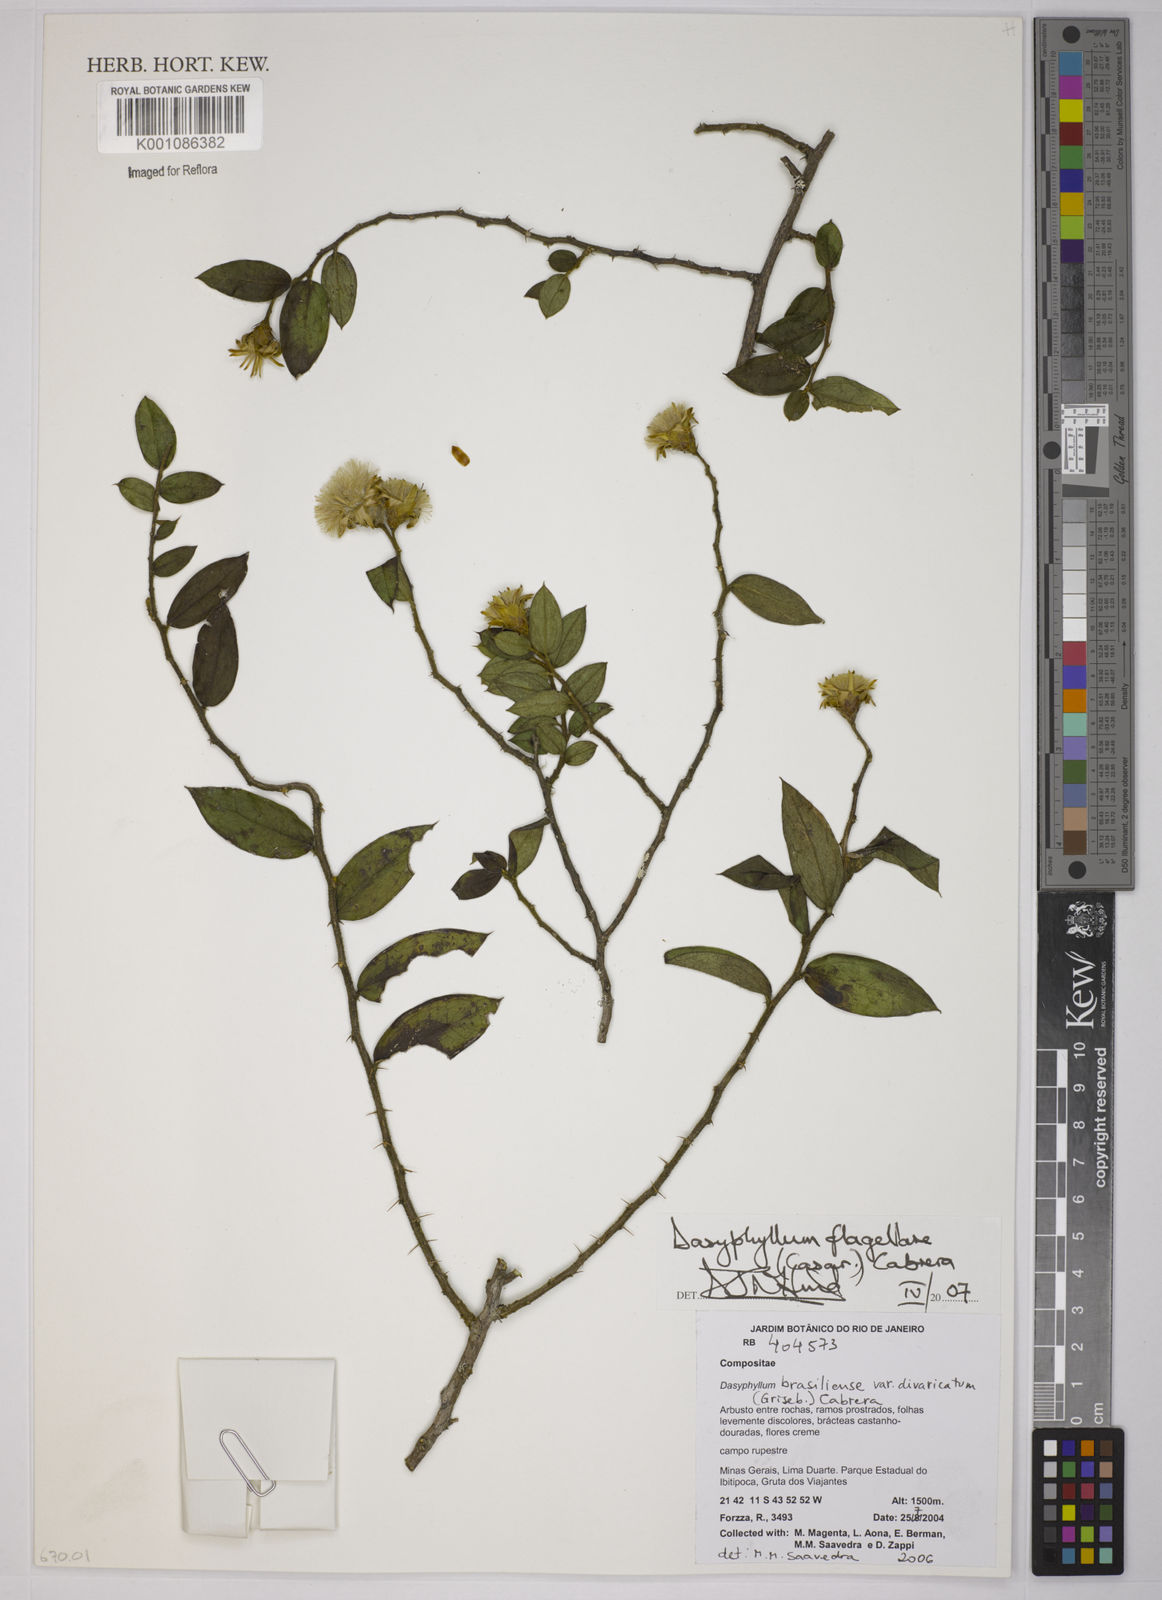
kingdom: Plantae
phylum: Tracheophyta
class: Magnoliopsida
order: Asterales
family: Asteraceae
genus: Dasyphyllum
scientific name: Dasyphyllum flagellare
